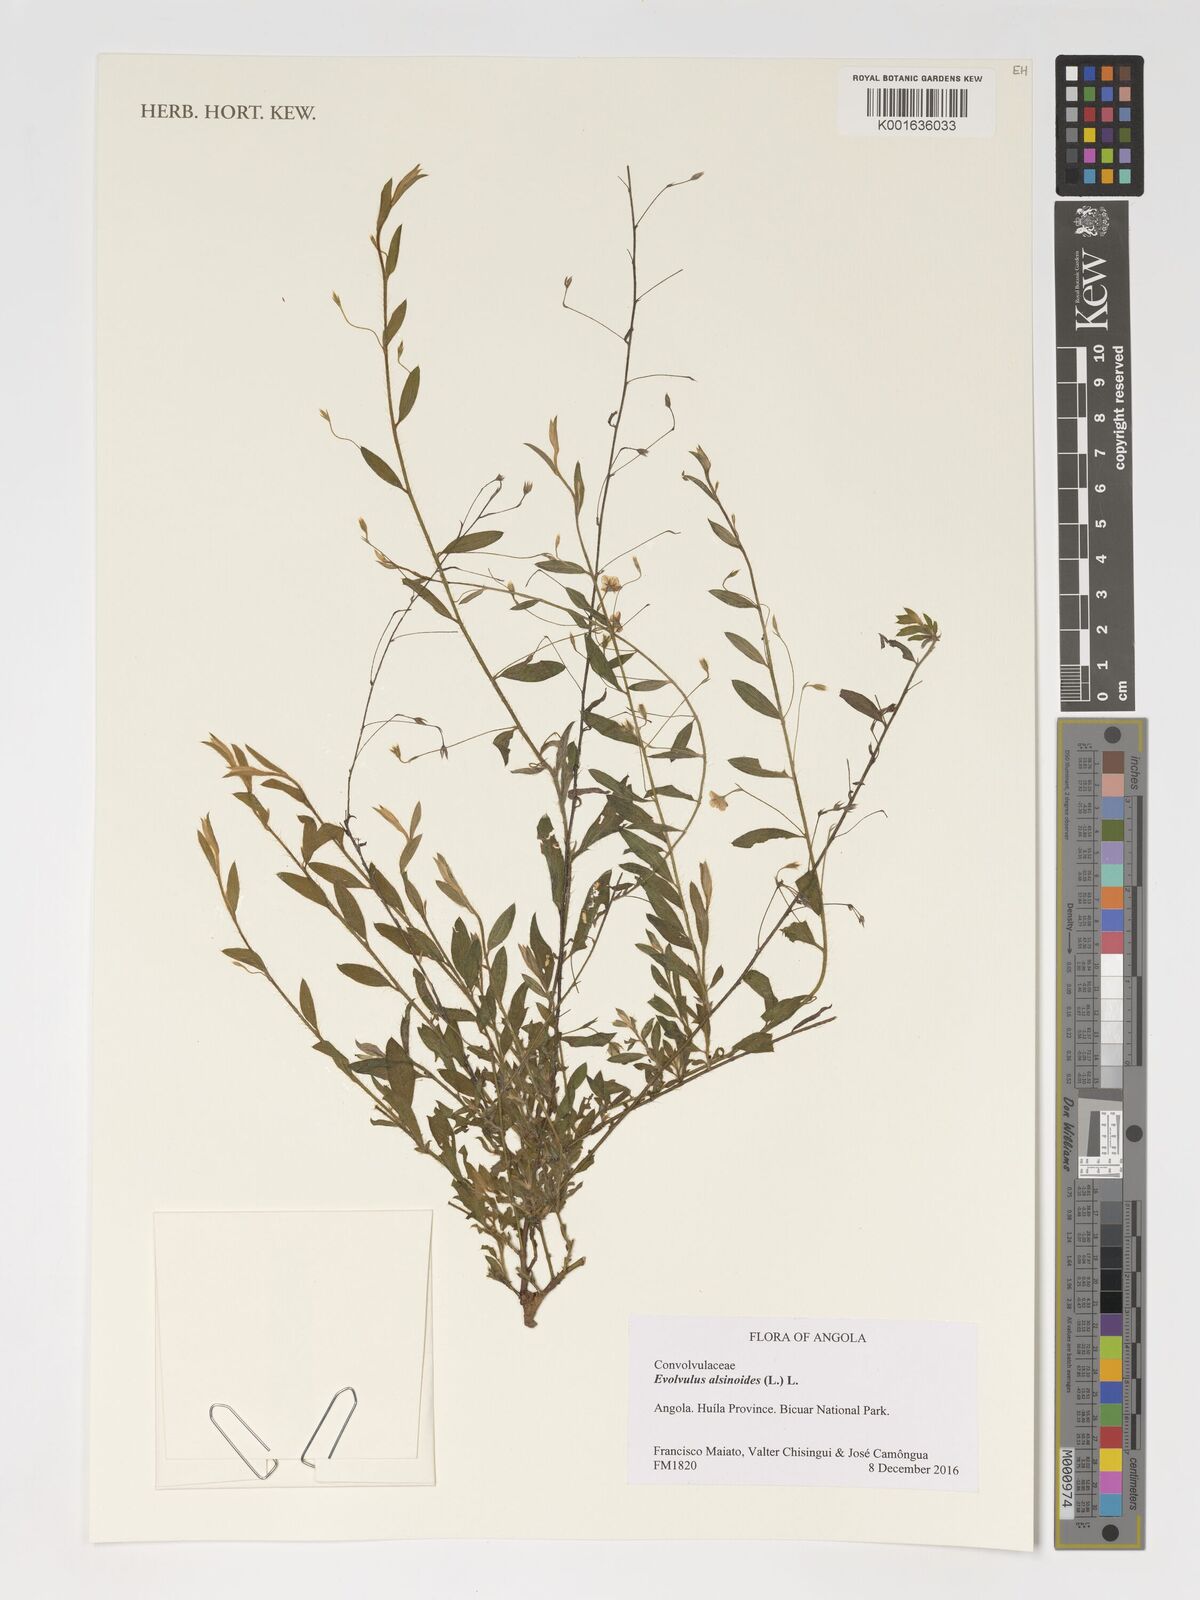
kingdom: Plantae
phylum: Tracheophyta
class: Magnoliopsida
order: Solanales
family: Convolvulaceae
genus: Evolvulus
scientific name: Evolvulus alsinoides
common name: Slender dwarf morning-glory
